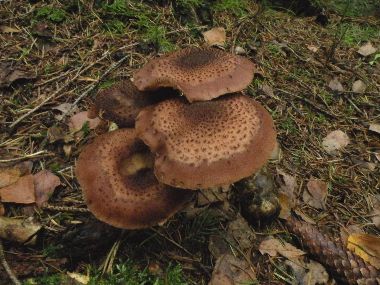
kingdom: Fungi
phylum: Basidiomycota
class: Agaricomycetes
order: Agaricales
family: Physalacriaceae
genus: Armillaria
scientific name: Armillaria ostoyae
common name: mørk honningsvamp
